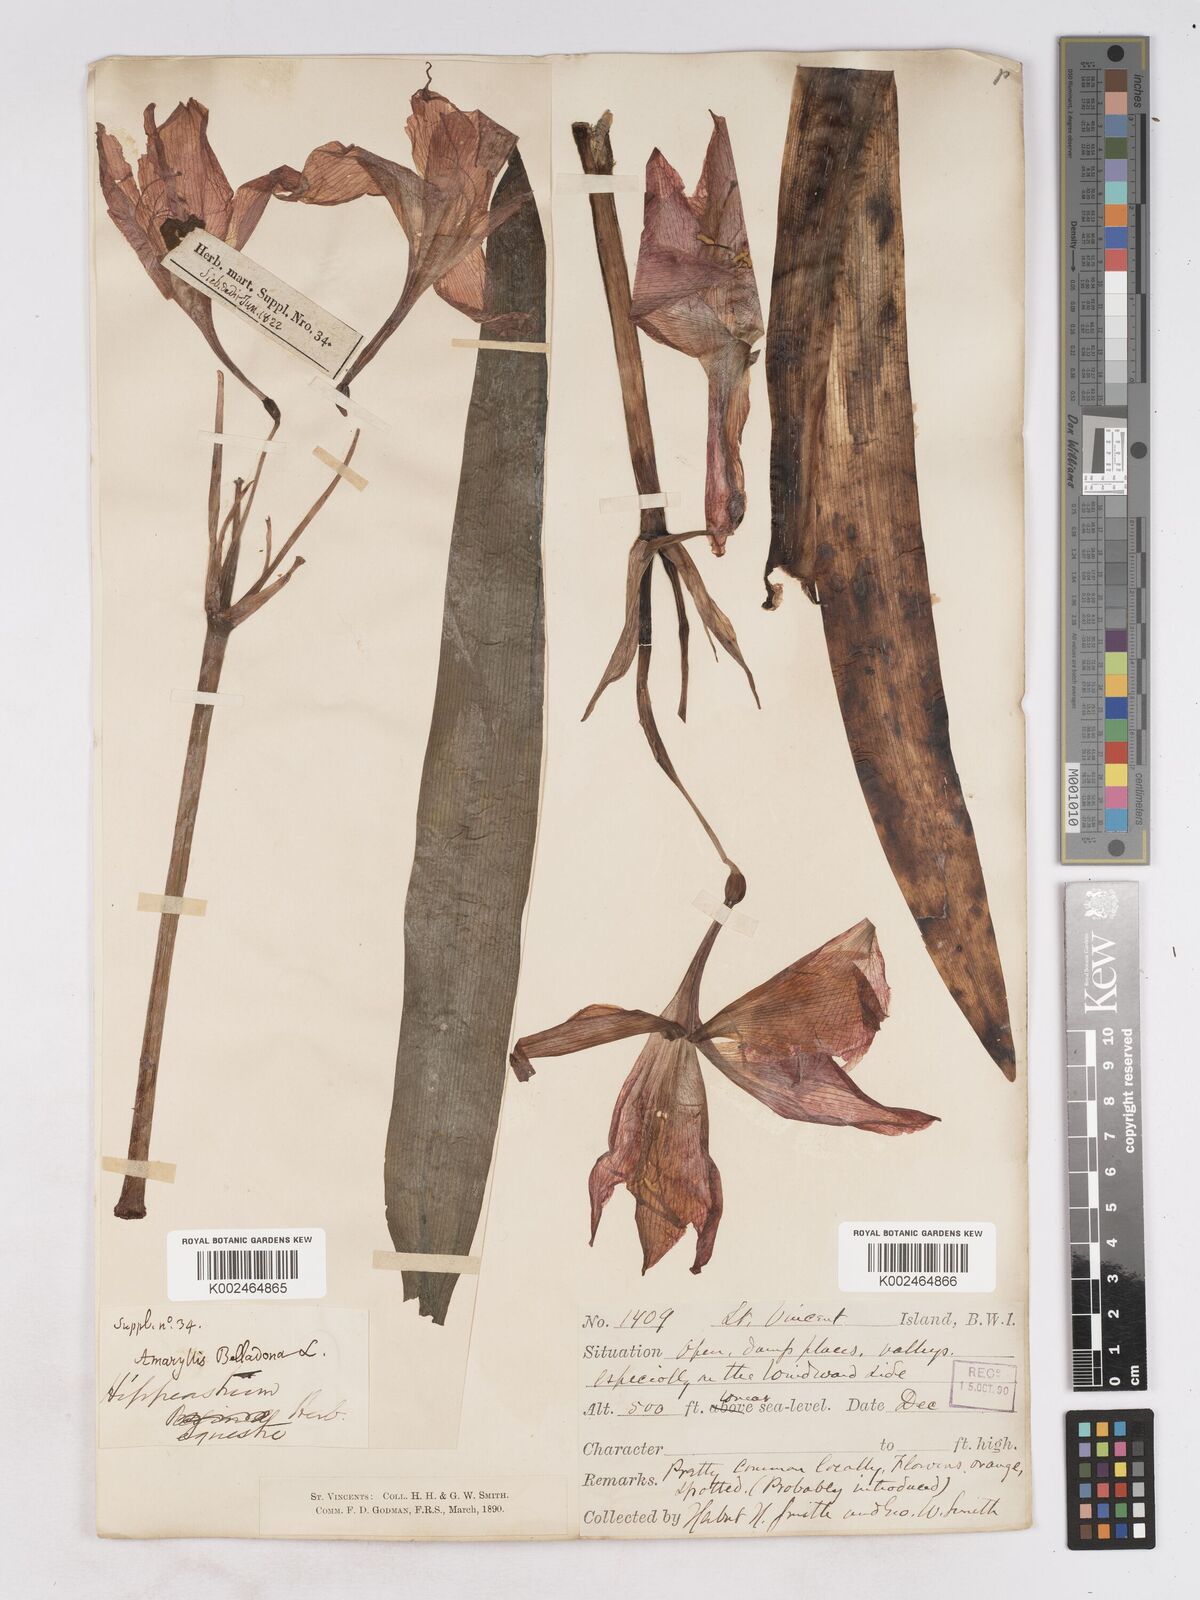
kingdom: Plantae
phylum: Tracheophyta
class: Liliopsida
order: Asparagales
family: Amaryllidaceae
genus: Hippeastrum
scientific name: Hippeastrum puniceum
